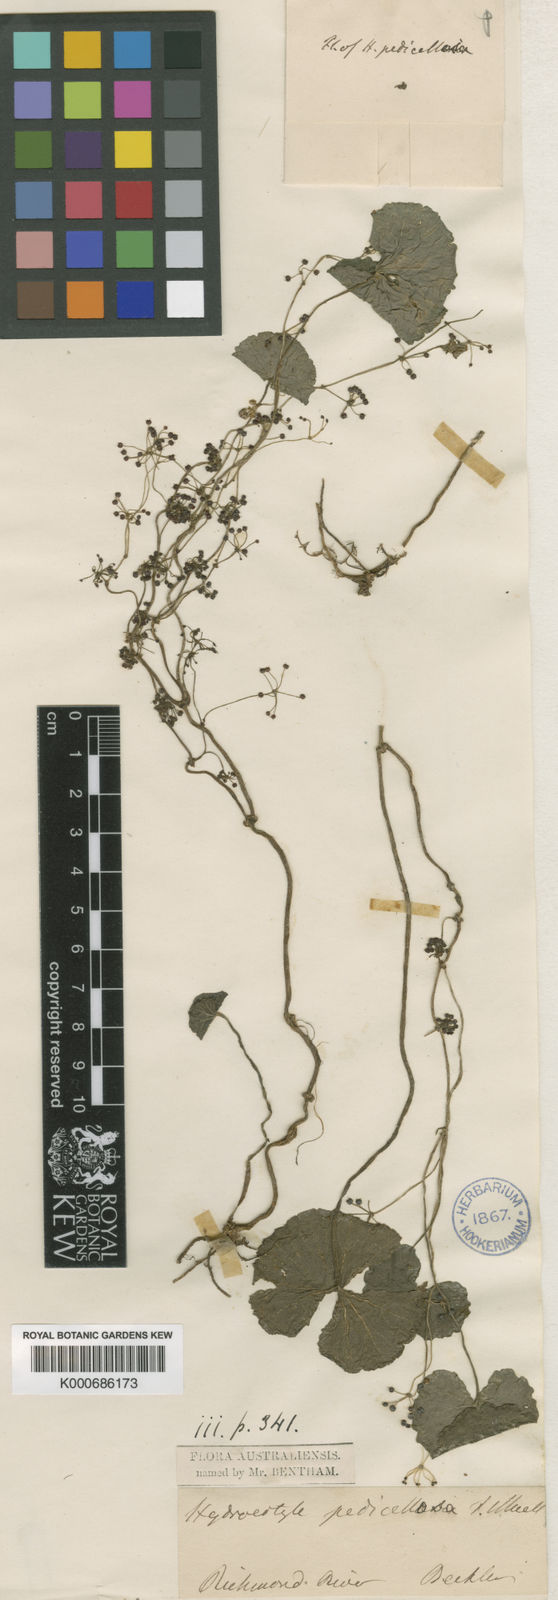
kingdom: Plantae
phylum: Tracheophyta
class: Magnoliopsida
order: Apiales
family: Araliaceae
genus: Hydrocotyle
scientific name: Hydrocotyle pedicellosa
